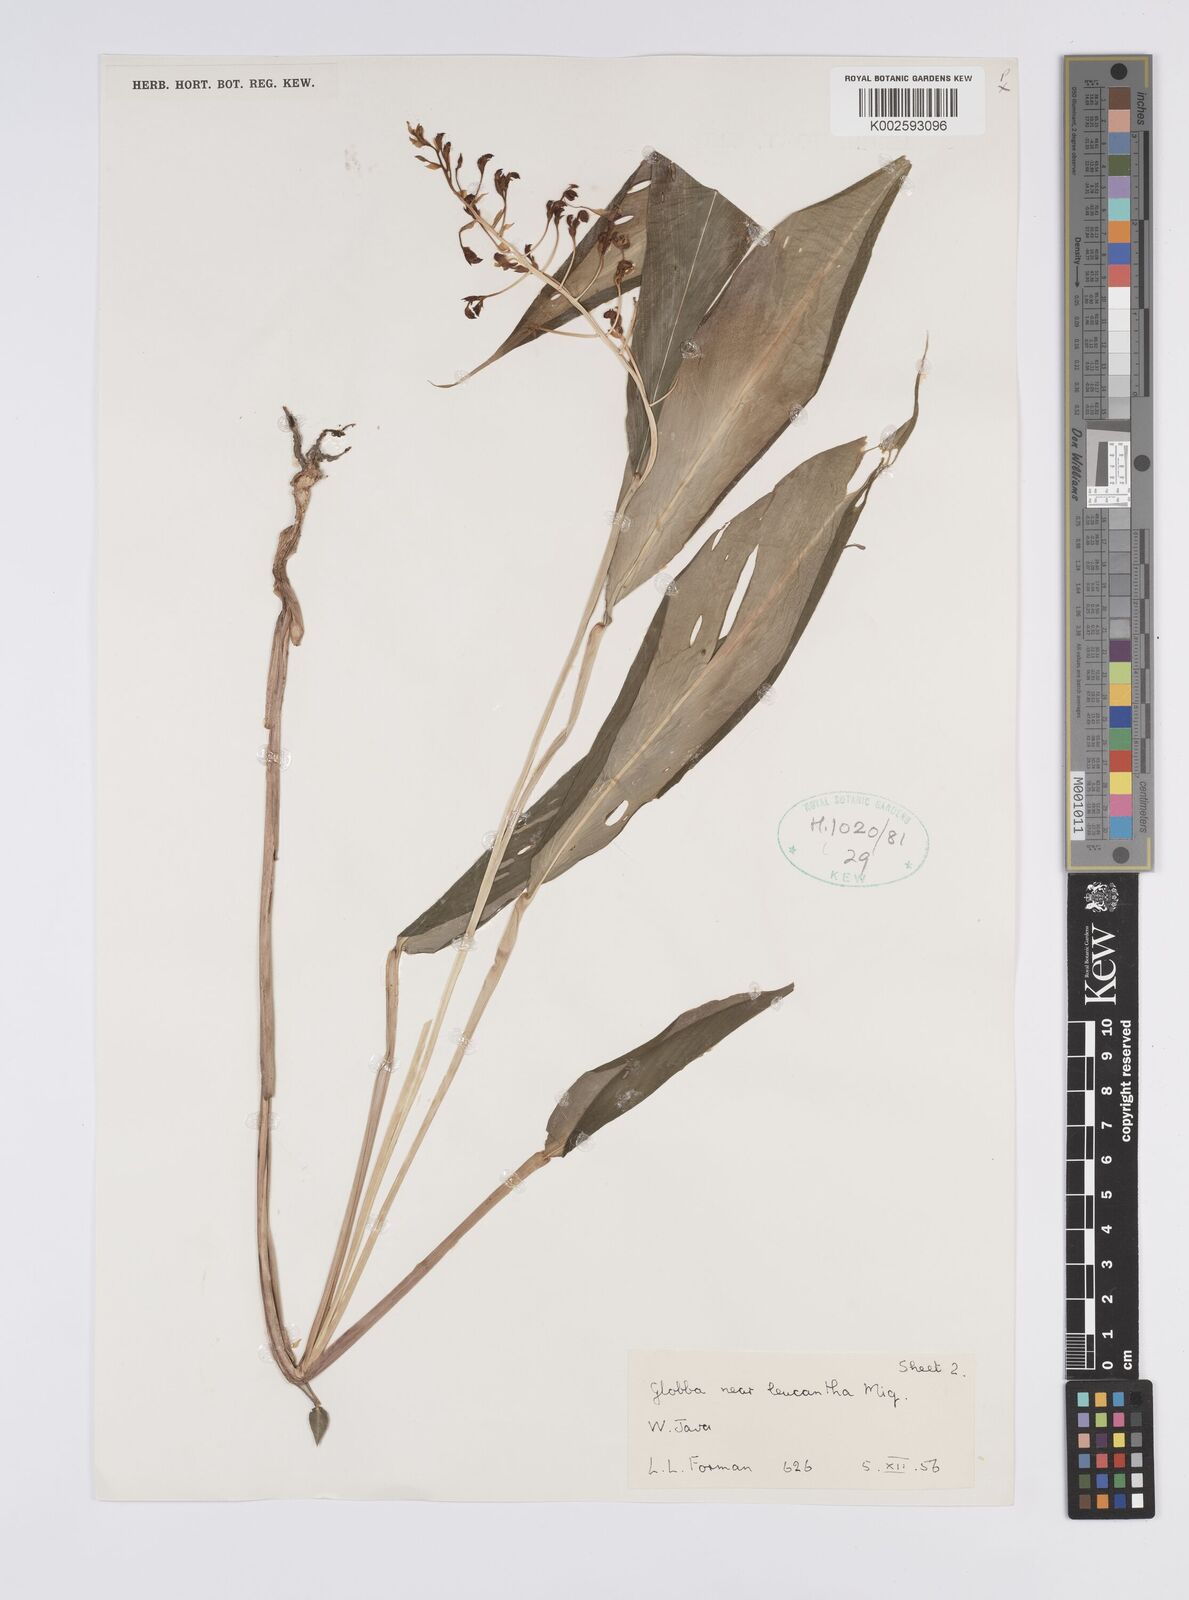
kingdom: Plantae
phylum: Tracheophyta
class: Liliopsida
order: Zingiberales
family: Zingiberaceae
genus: Globba
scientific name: Globba leucantha
